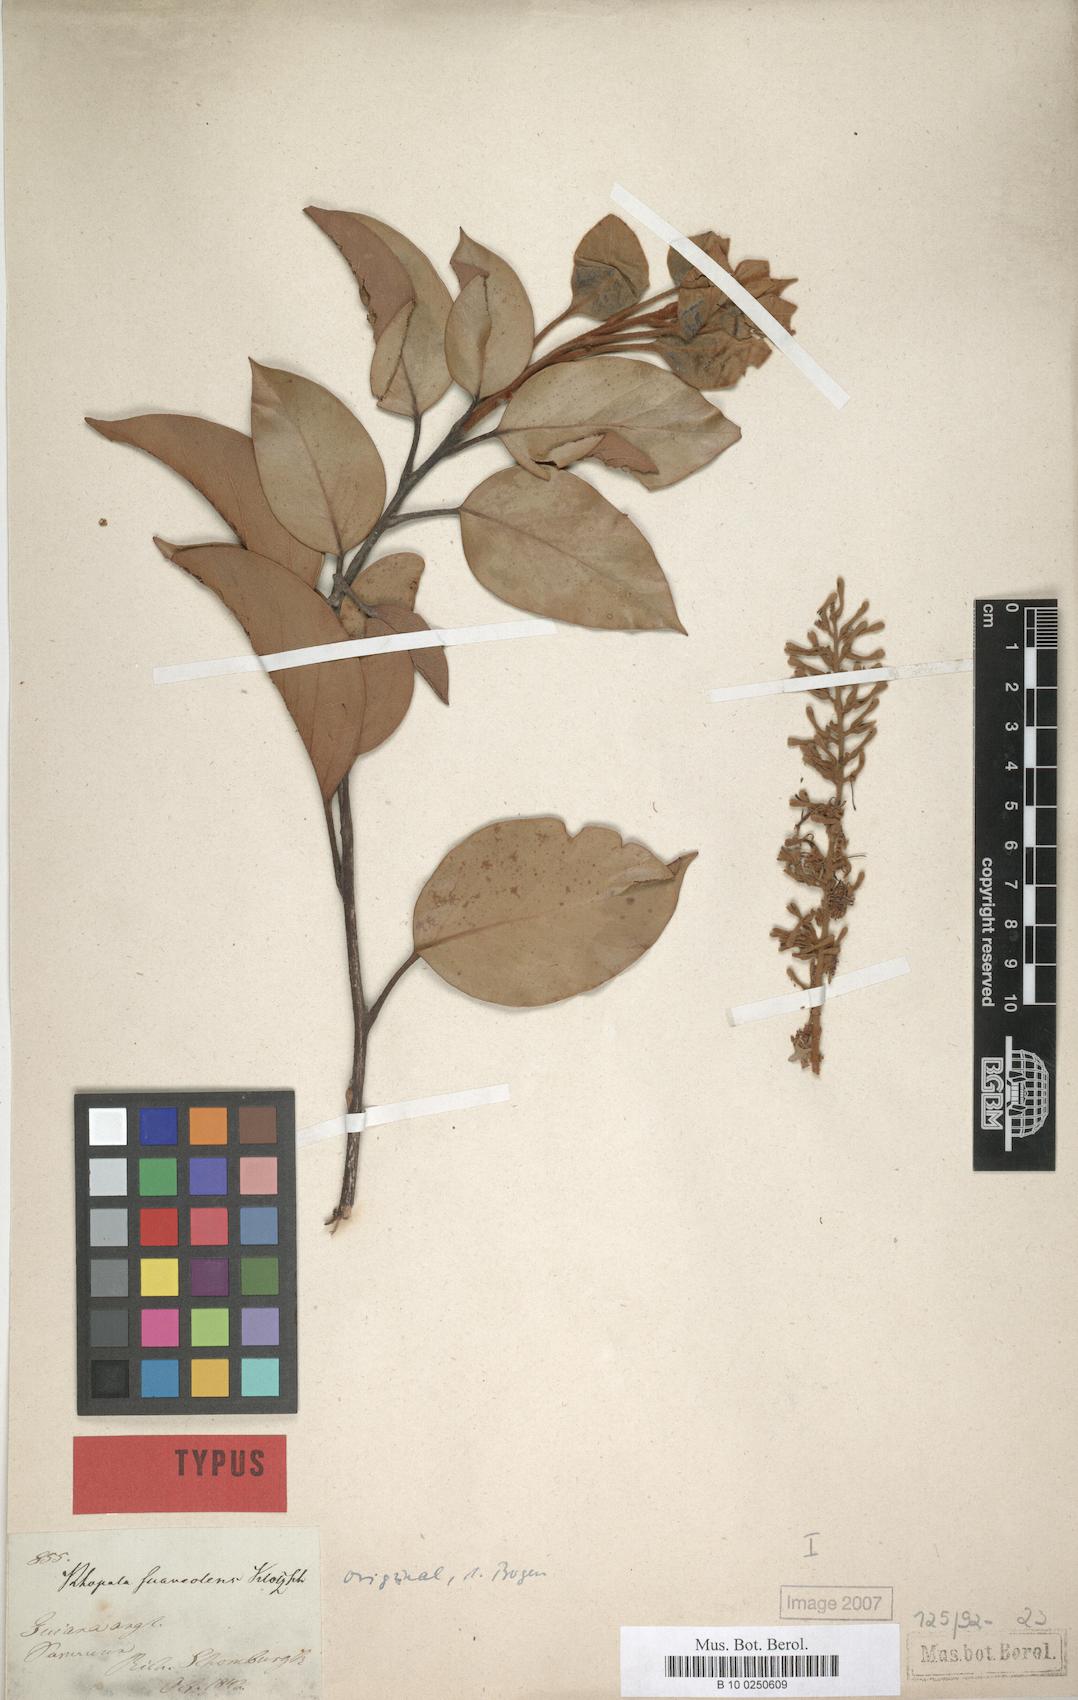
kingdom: Plantae
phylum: Tracheophyta
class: Magnoliopsida
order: Proteales
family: Proteaceae
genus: Roupala
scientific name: Roupala suaveolens
